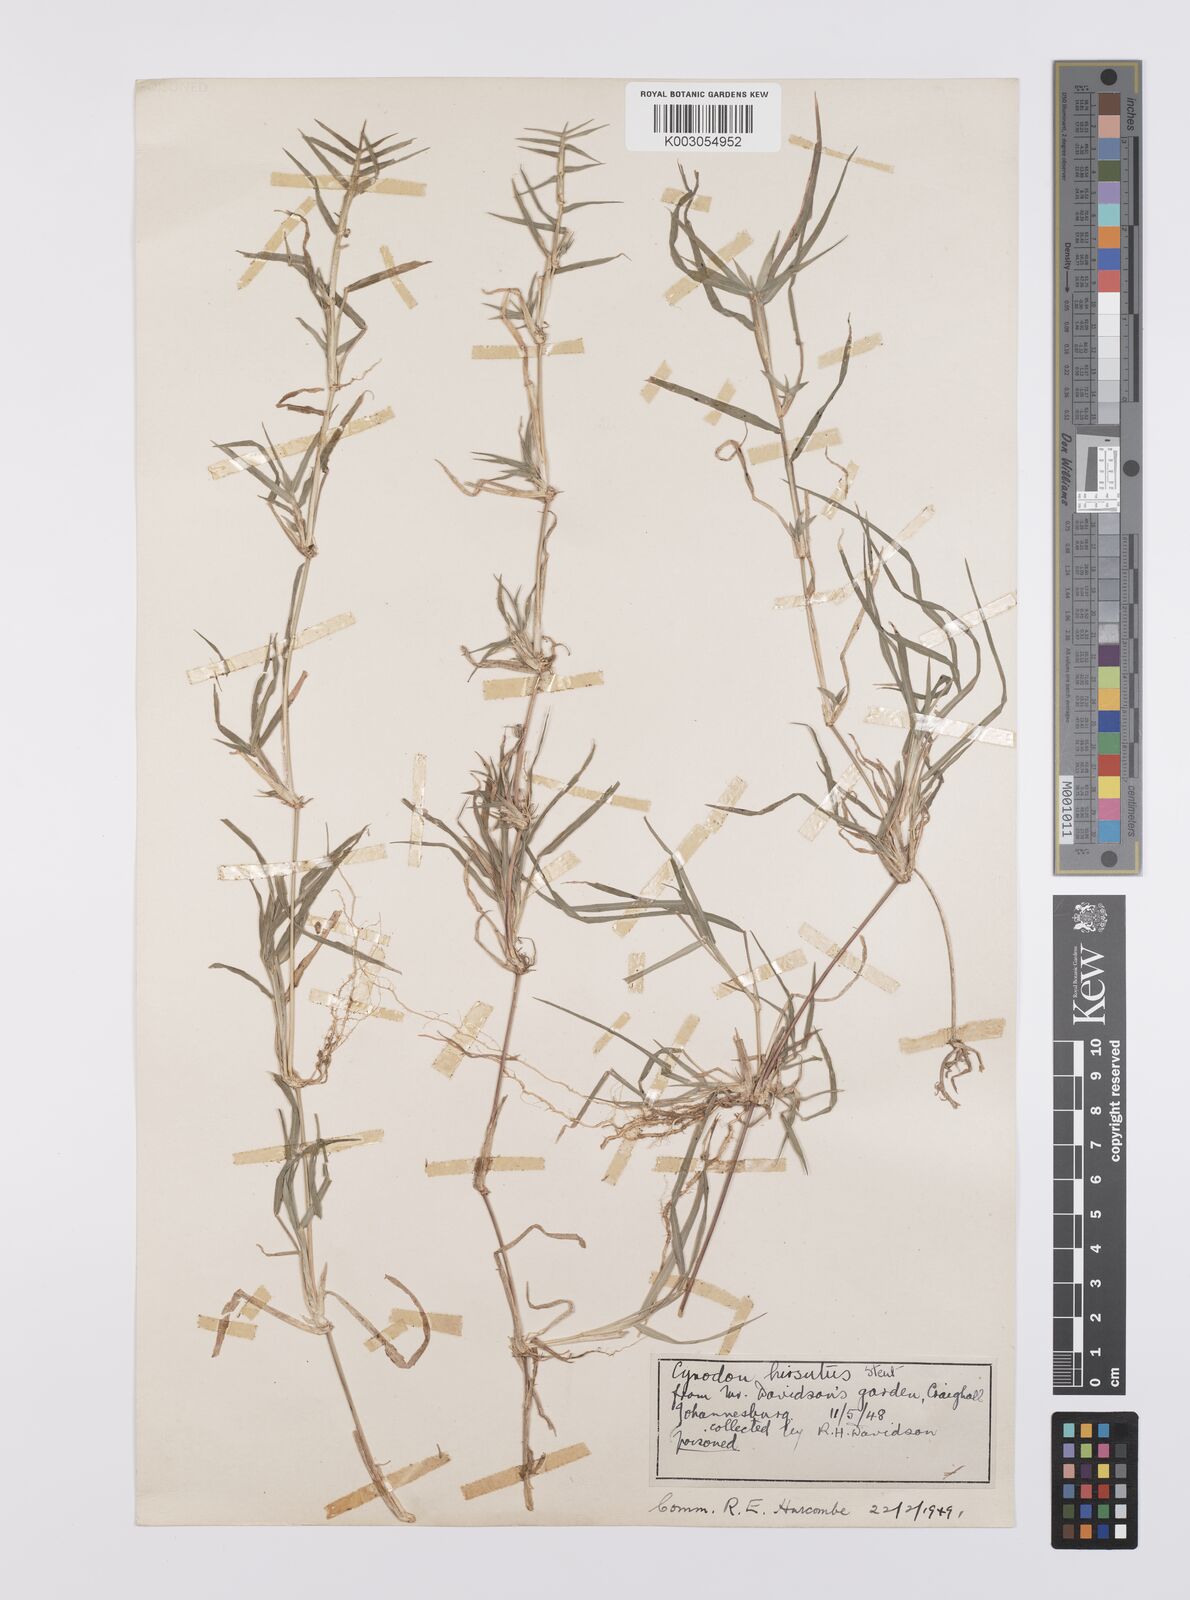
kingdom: Plantae
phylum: Tracheophyta
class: Liliopsida
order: Poales
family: Poaceae
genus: Cynodon
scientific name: Cynodon incompletus
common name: African bermuda-grass
